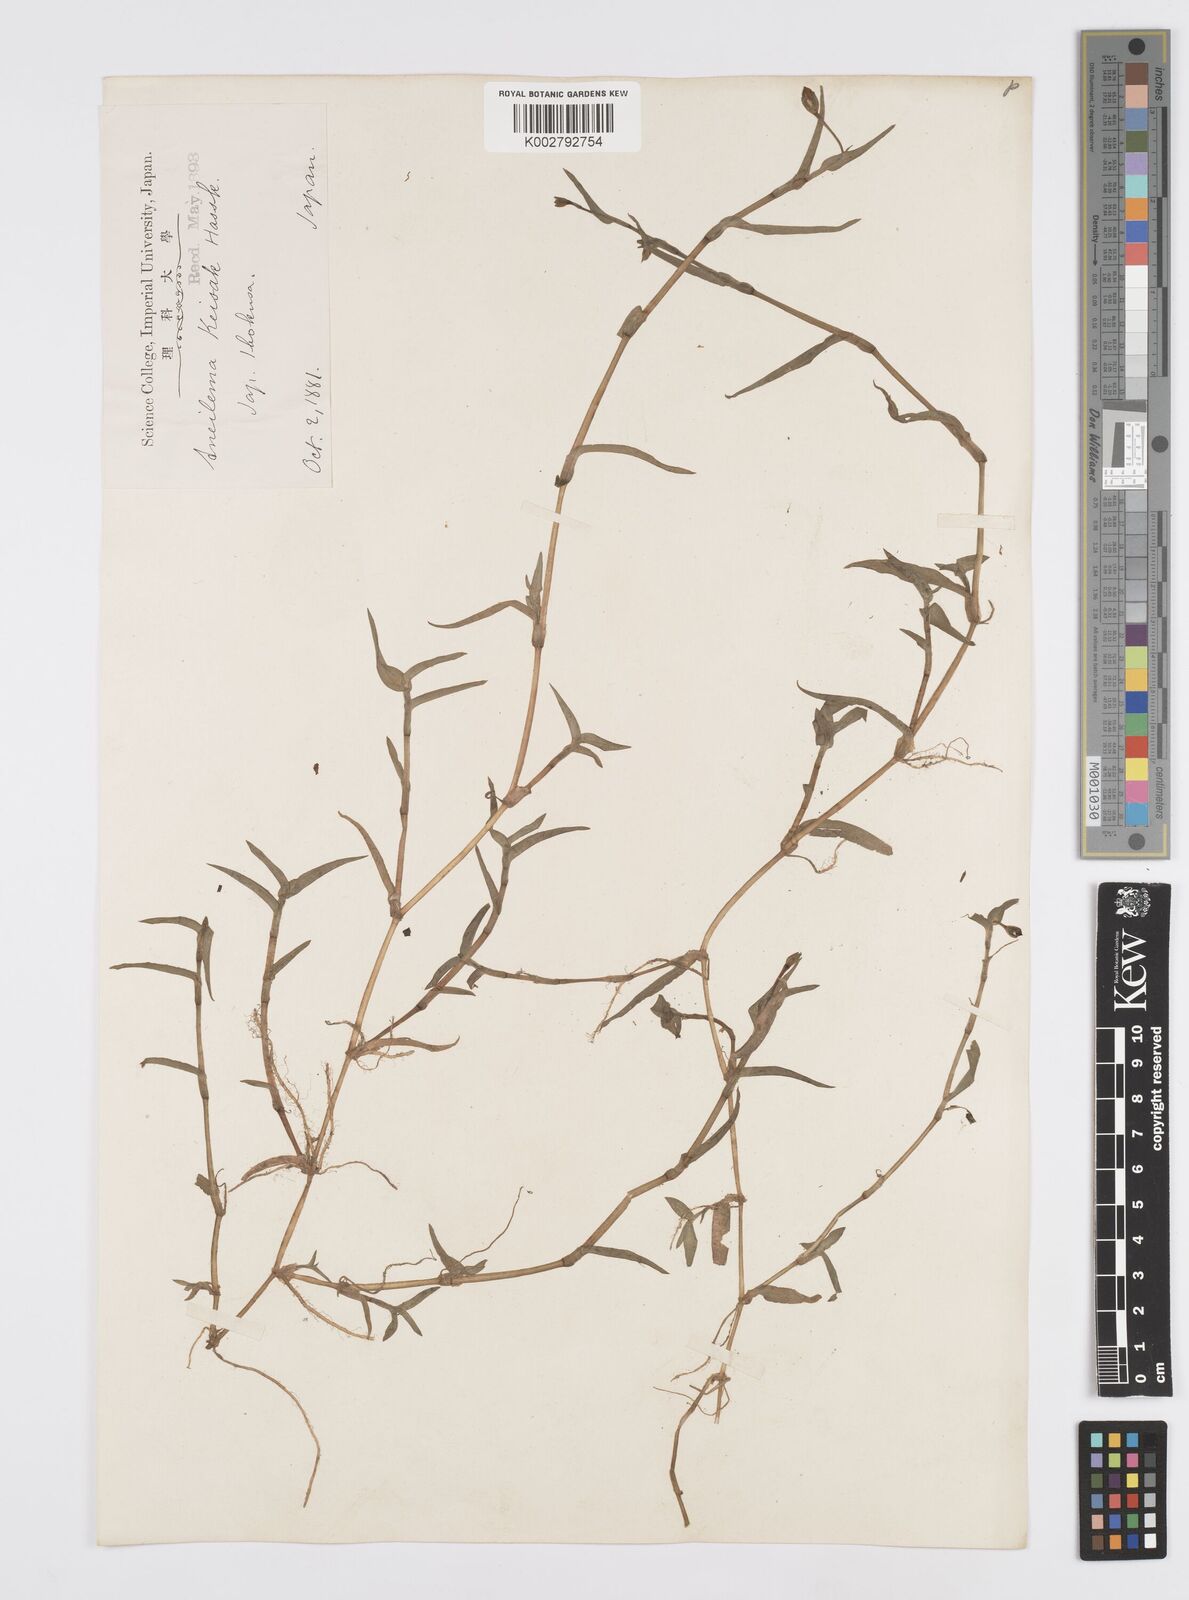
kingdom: Plantae
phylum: Tracheophyta
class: Liliopsida
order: Commelinales
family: Commelinaceae
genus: Murdannia
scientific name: Murdannia keisak
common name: Wartremoving herb
